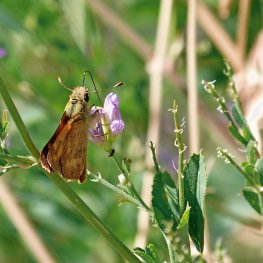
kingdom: Animalia
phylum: Arthropoda
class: Insecta
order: Lepidoptera
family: Hesperiidae
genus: Ochlodes
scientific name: Ochlodes sylvanoides
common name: Woodland Skipper
